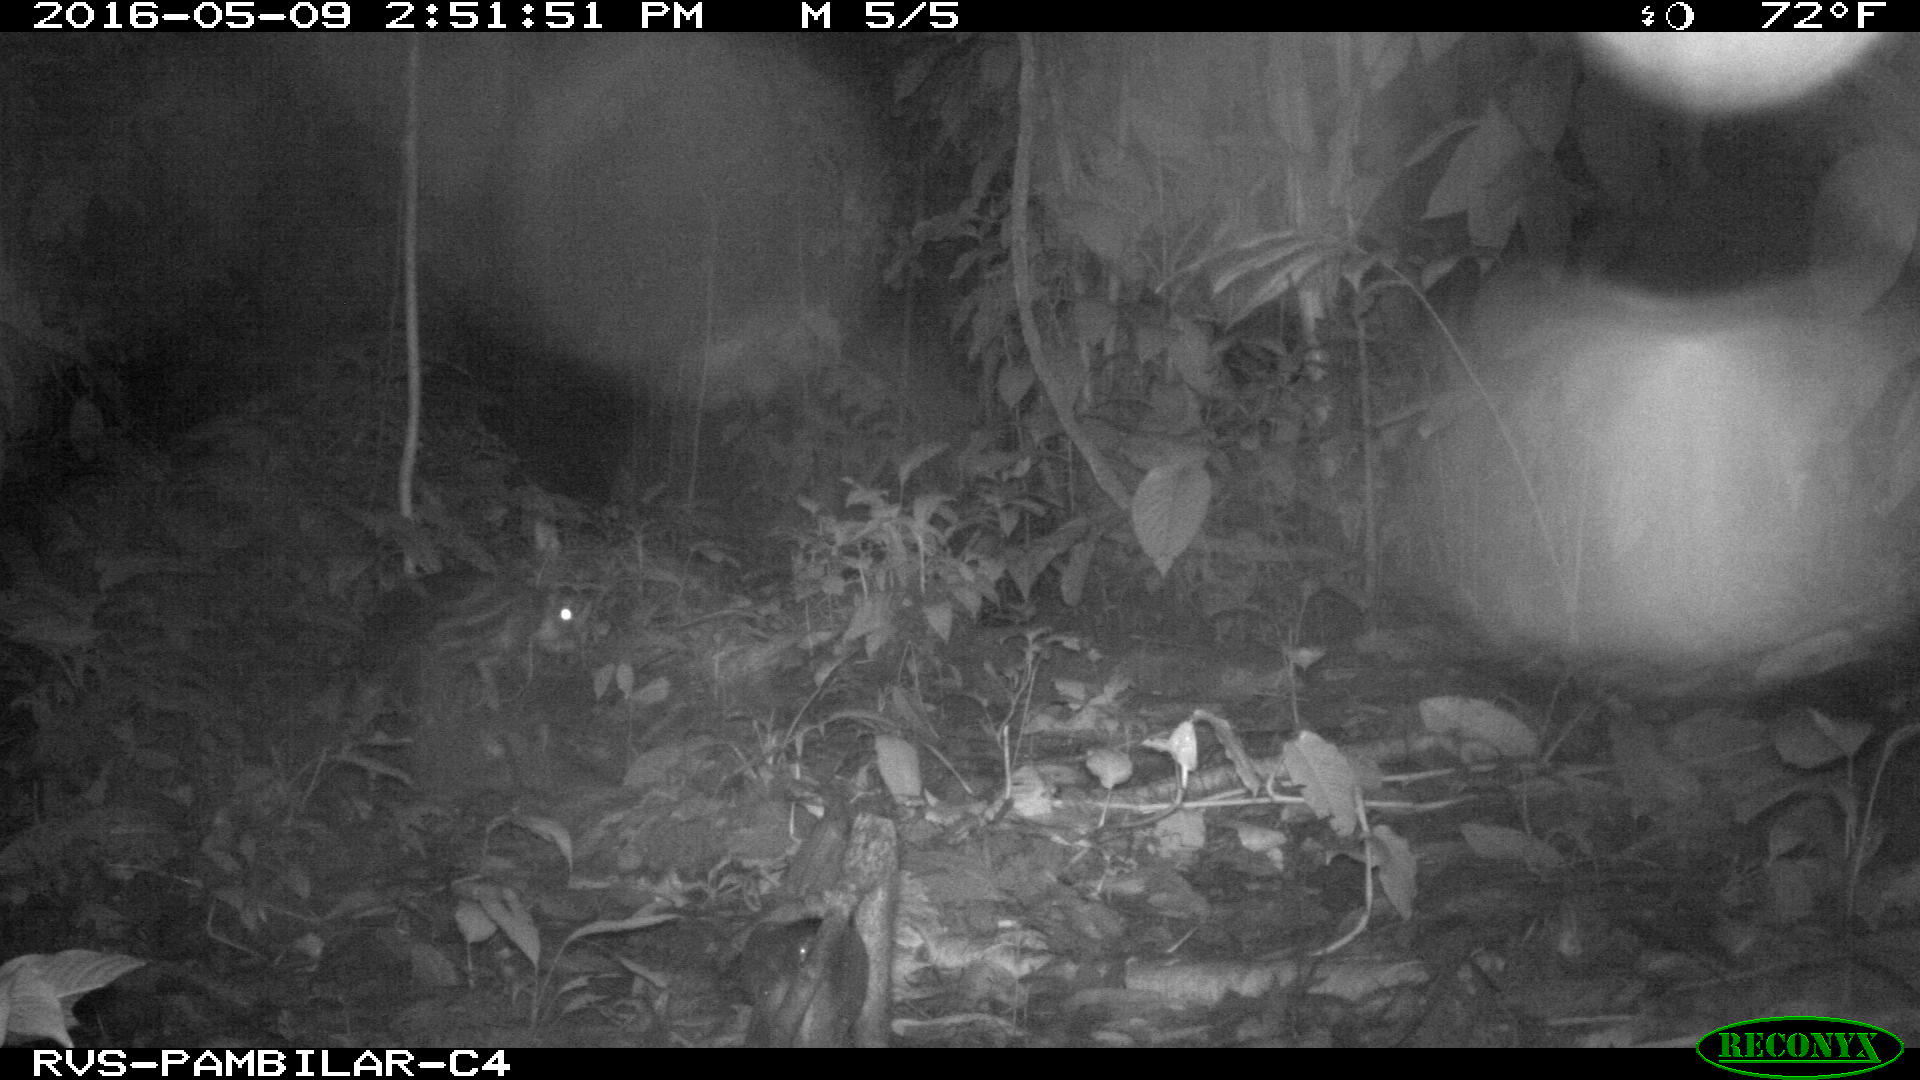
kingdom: Animalia
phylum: Chordata
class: Mammalia
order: Rodentia
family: Cuniculidae
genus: Cuniculus
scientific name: Cuniculus paca
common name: Lowland paca
